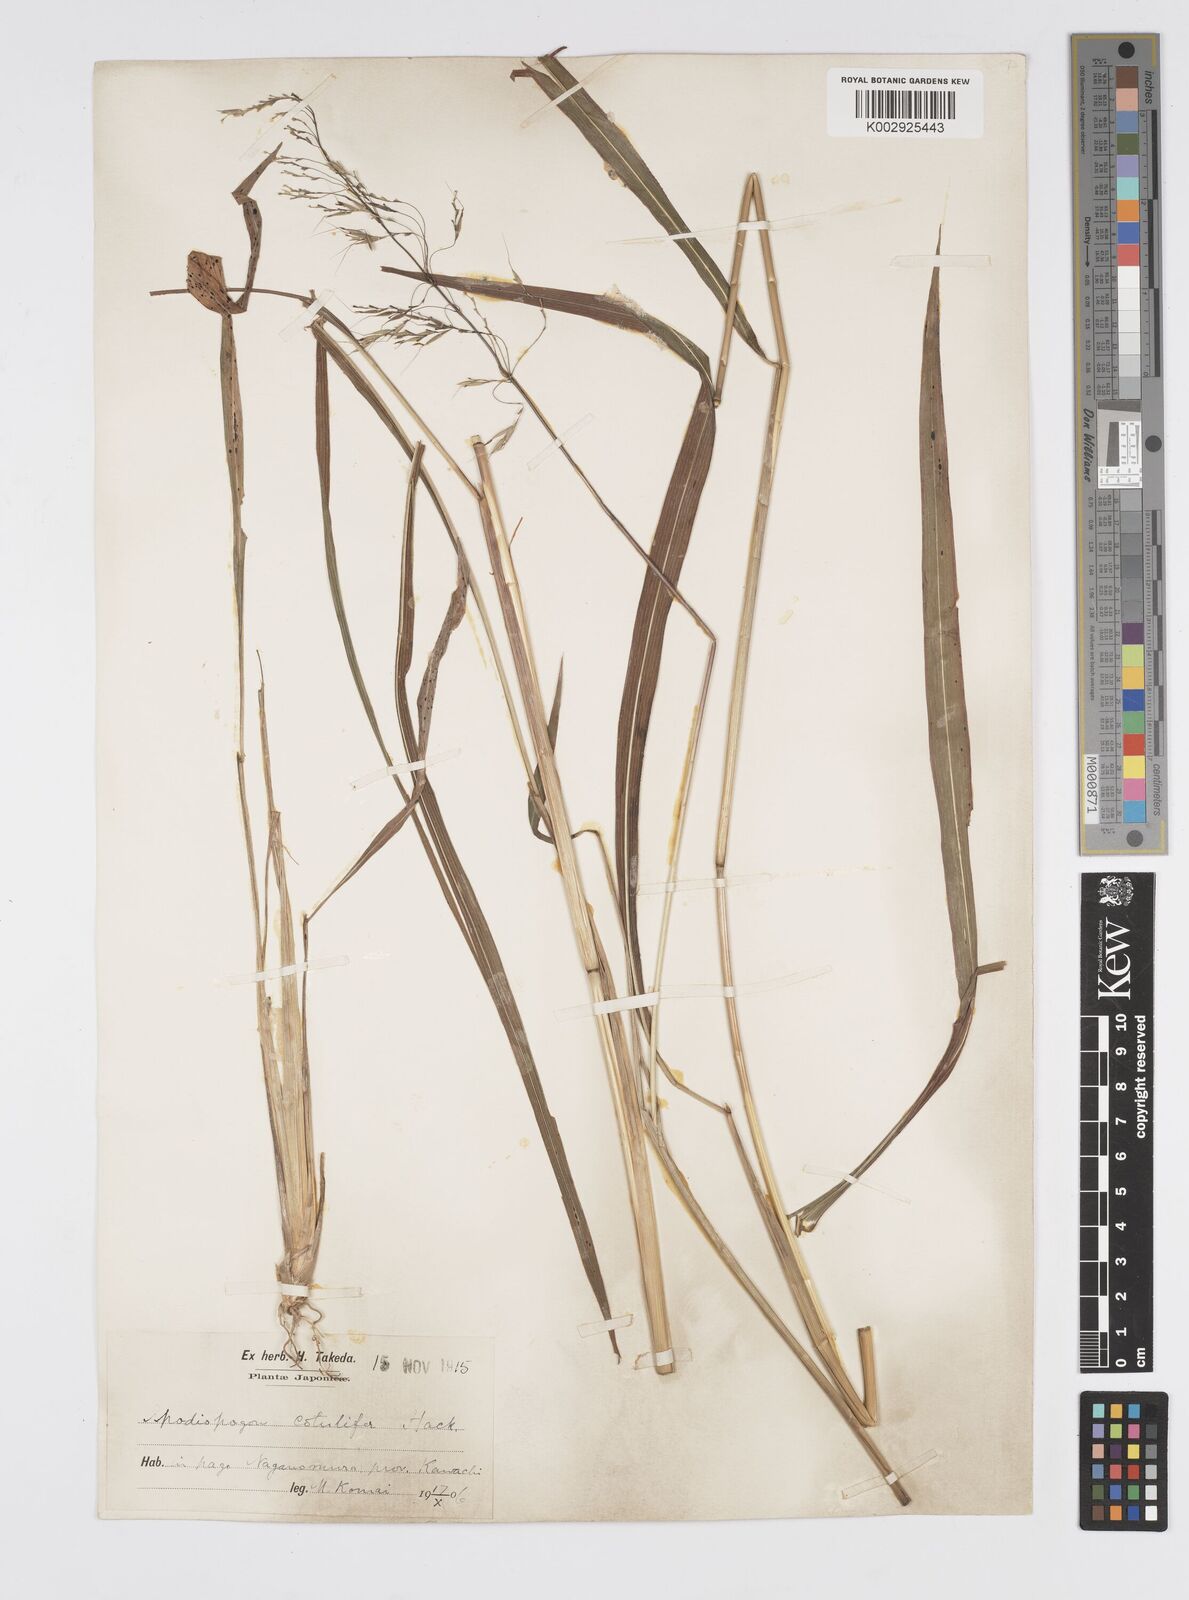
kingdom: Plantae
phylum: Tracheophyta
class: Liliopsida
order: Poales
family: Poaceae
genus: Spodiopogon
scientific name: Spodiopogon cotulifer
